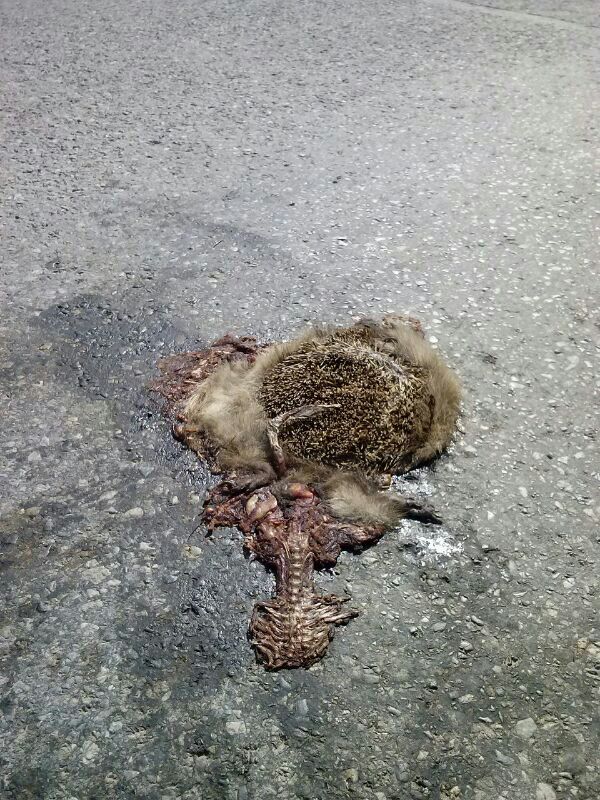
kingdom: Animalia
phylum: Chordata
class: Mammalia
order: Erinaceomorpha
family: Erinaceidae
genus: Erinaceus
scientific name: Erinaceus
